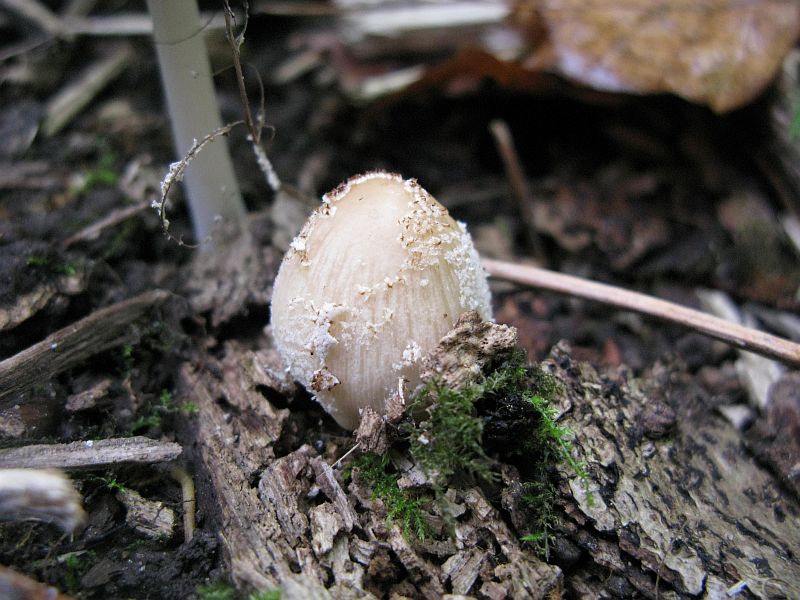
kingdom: Fungi
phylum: Basidiomycota
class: Agaricomycetes
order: Agaricales
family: Psathyrellaceae
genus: Coprinellus
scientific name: Coprinellus domesticus
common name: hus-blækhat
